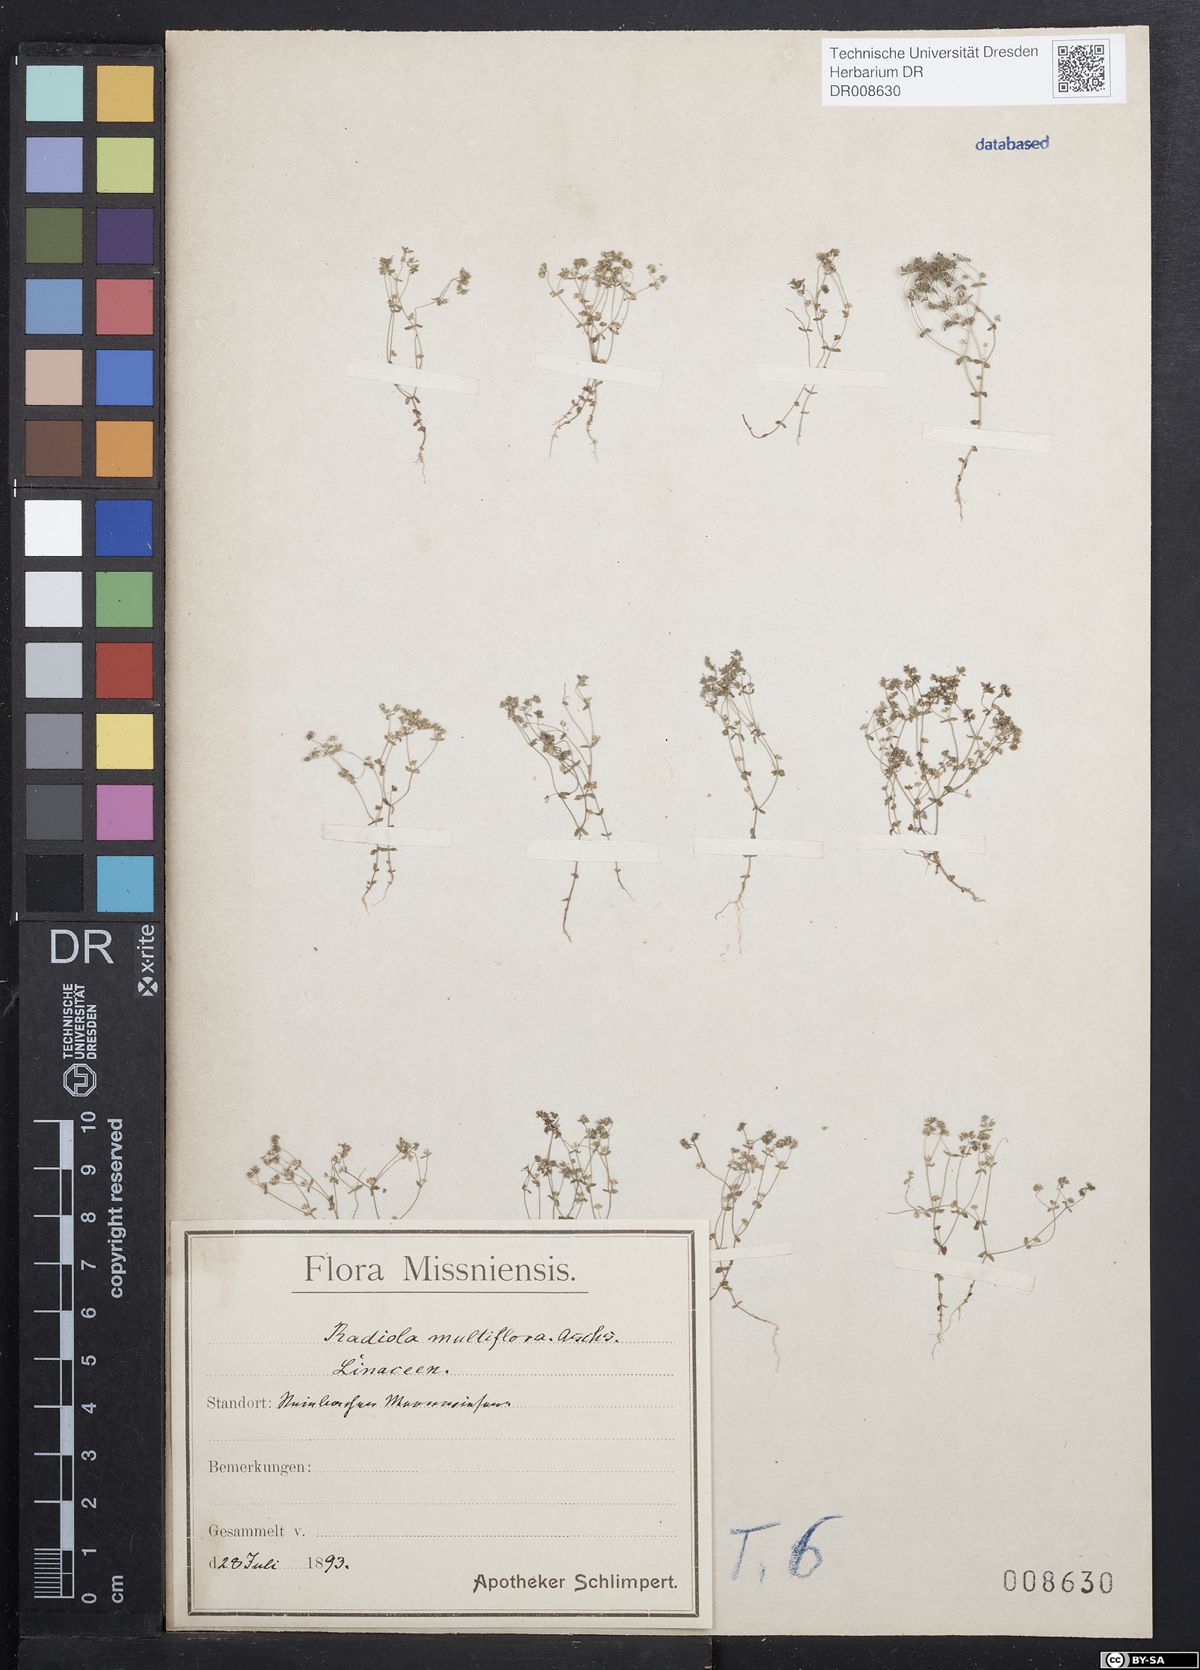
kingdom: Plantae
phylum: Tracheophyta
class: Magnoliopsida
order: Malpighiales
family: Linaceae
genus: Radiola
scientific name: Radiola linoides
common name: Allseed
